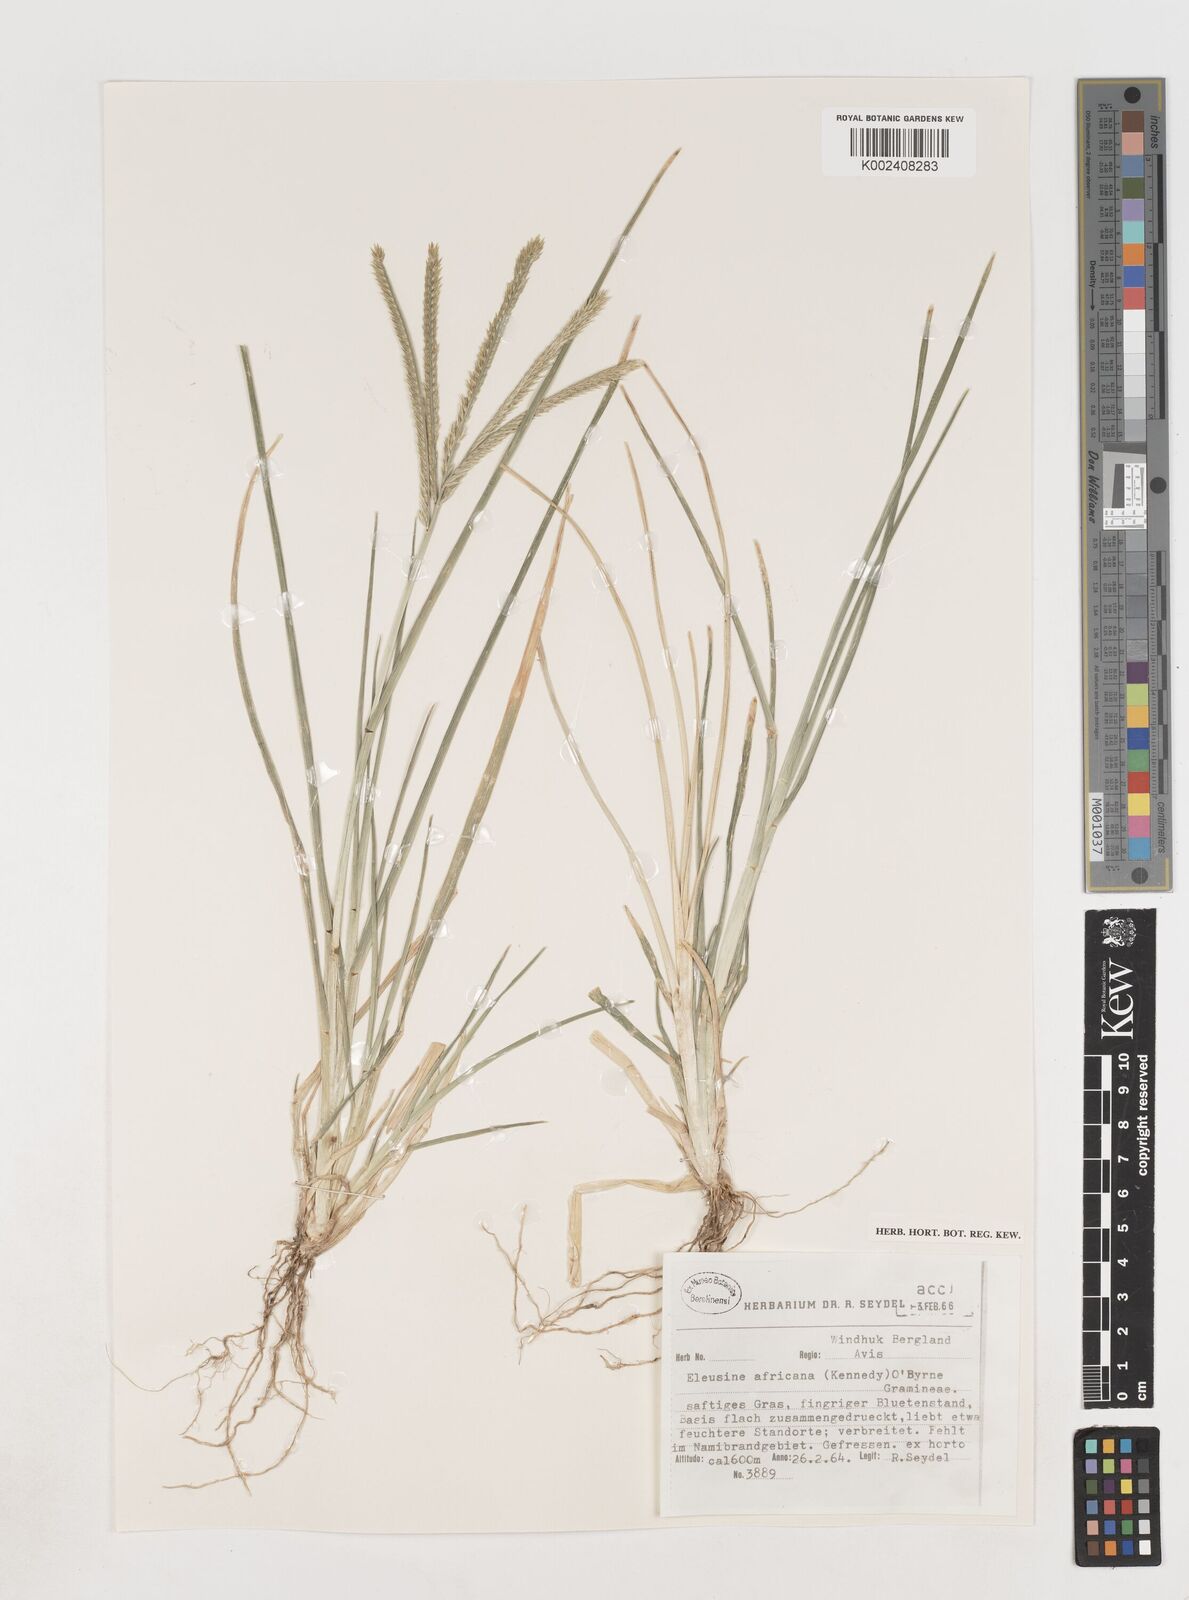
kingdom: Plantae
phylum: Tracheophyta
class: Liliopsida
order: Poales
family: Poaceae
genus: Eleusine
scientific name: Eleusine africana
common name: Wild african finger millet
